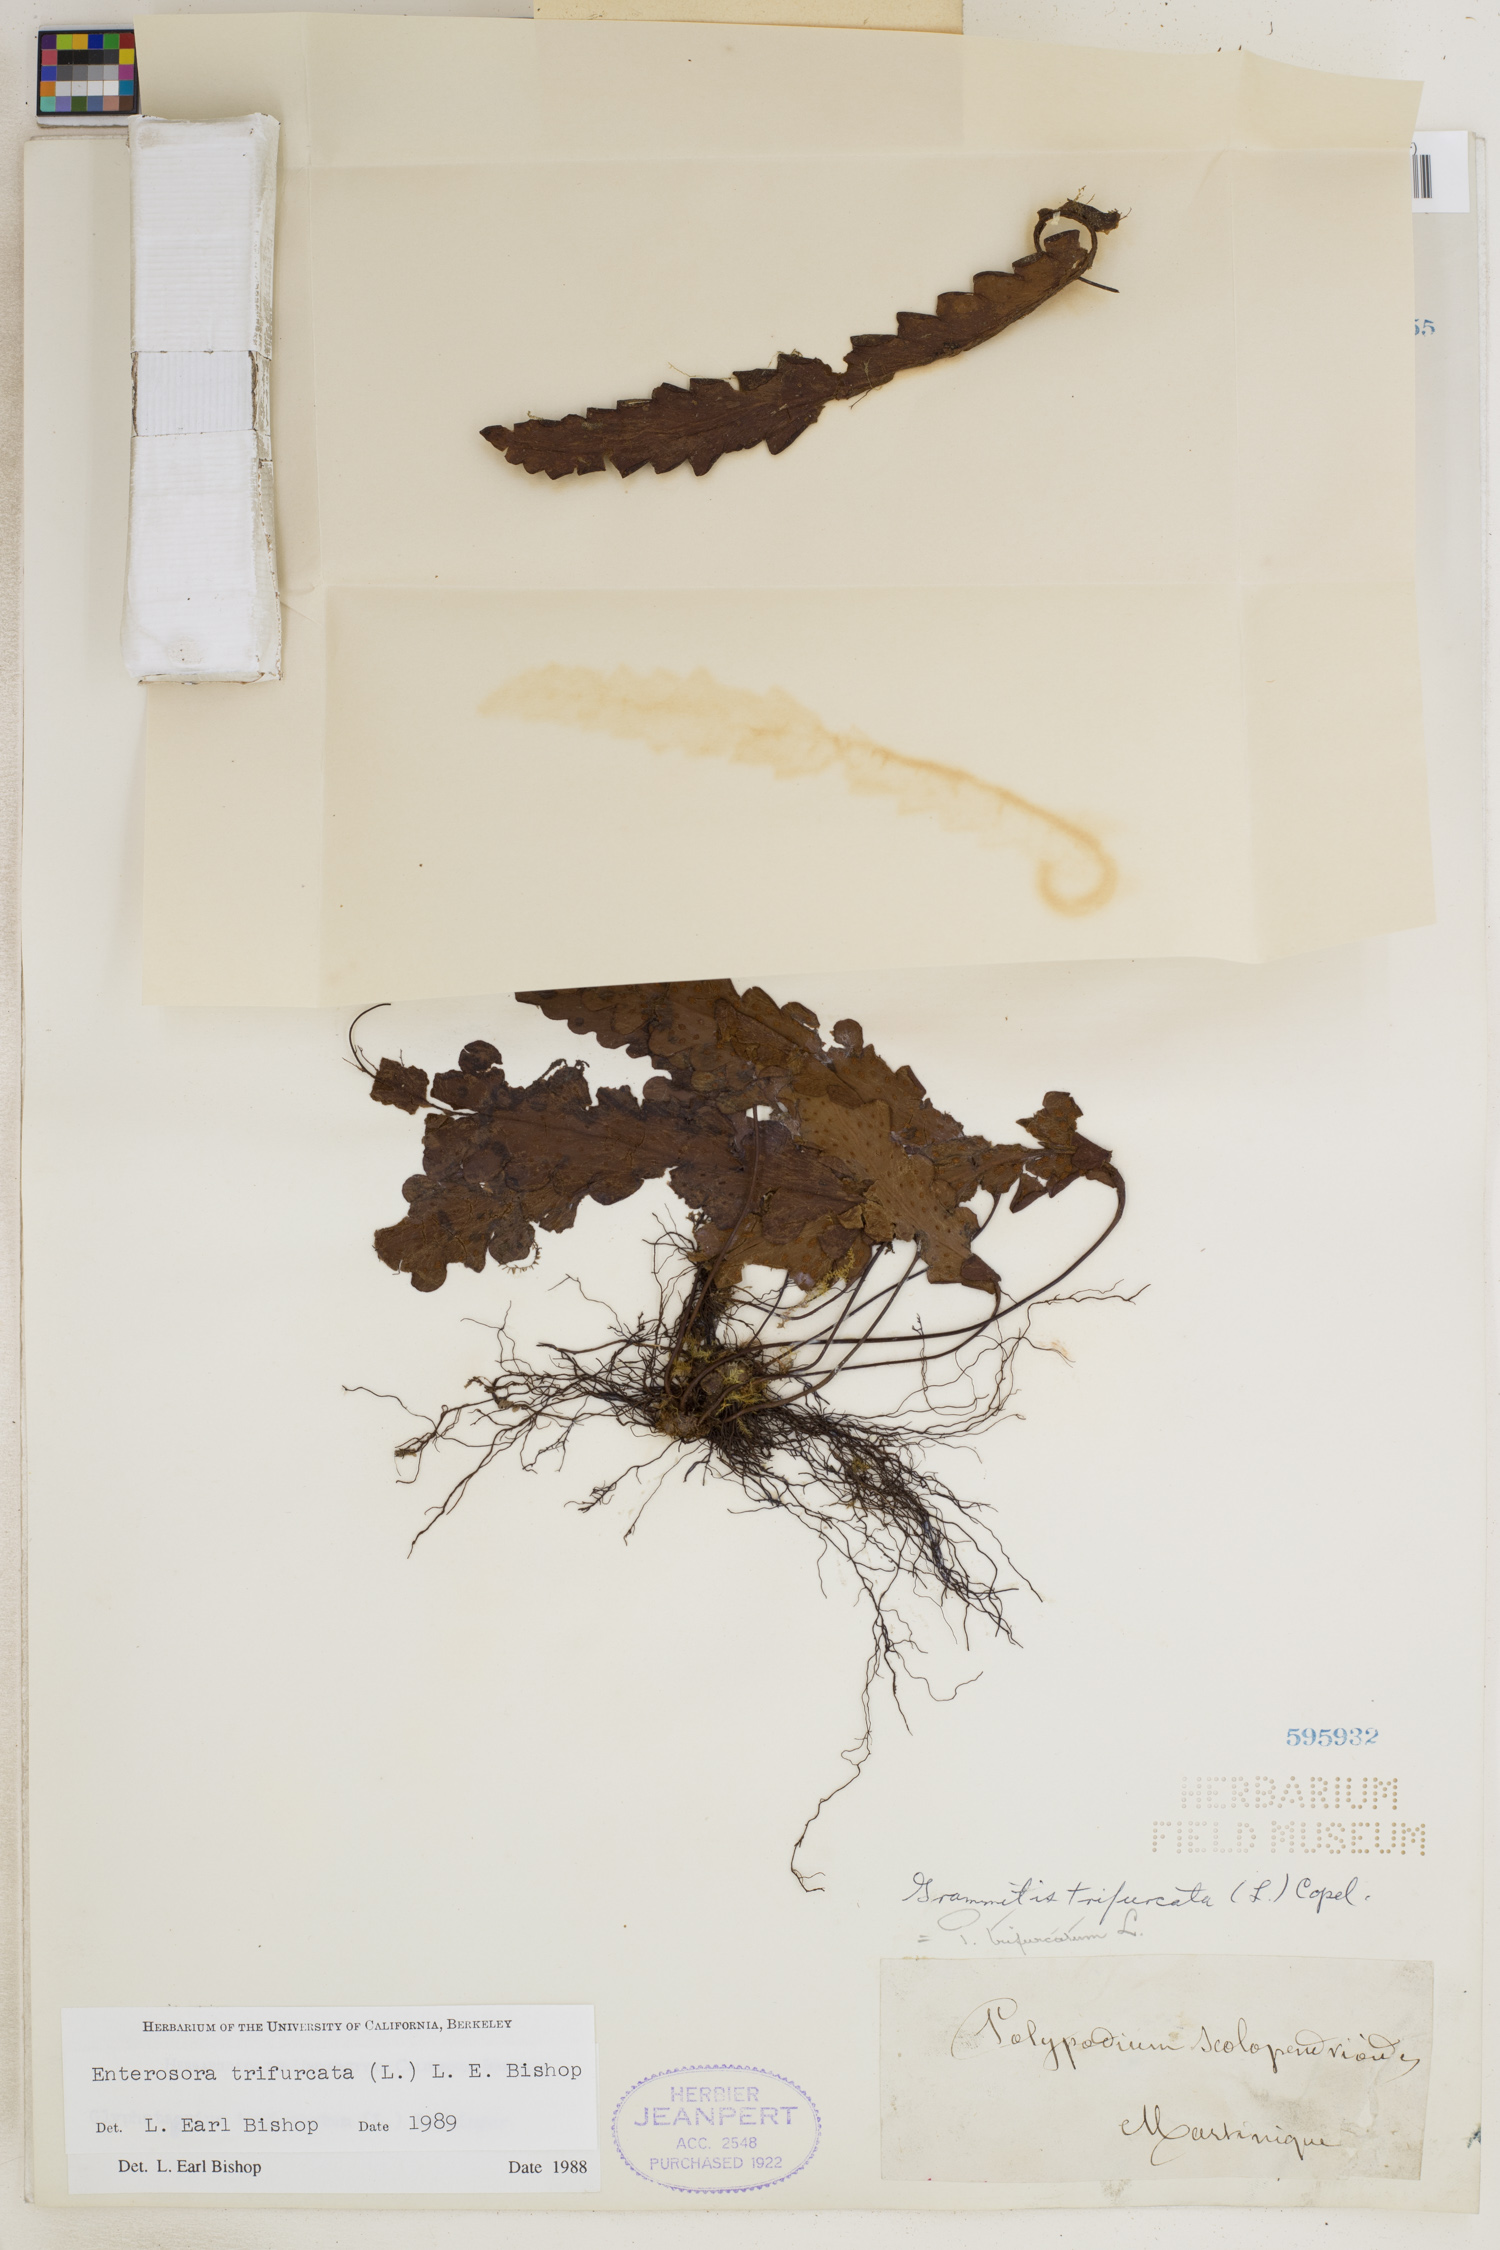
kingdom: Plantae
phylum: Tracheophyta
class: Polypodiopsida
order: Polypodiales
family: Polypodiaceae
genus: Enterosora
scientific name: Enterosora trifurcata
